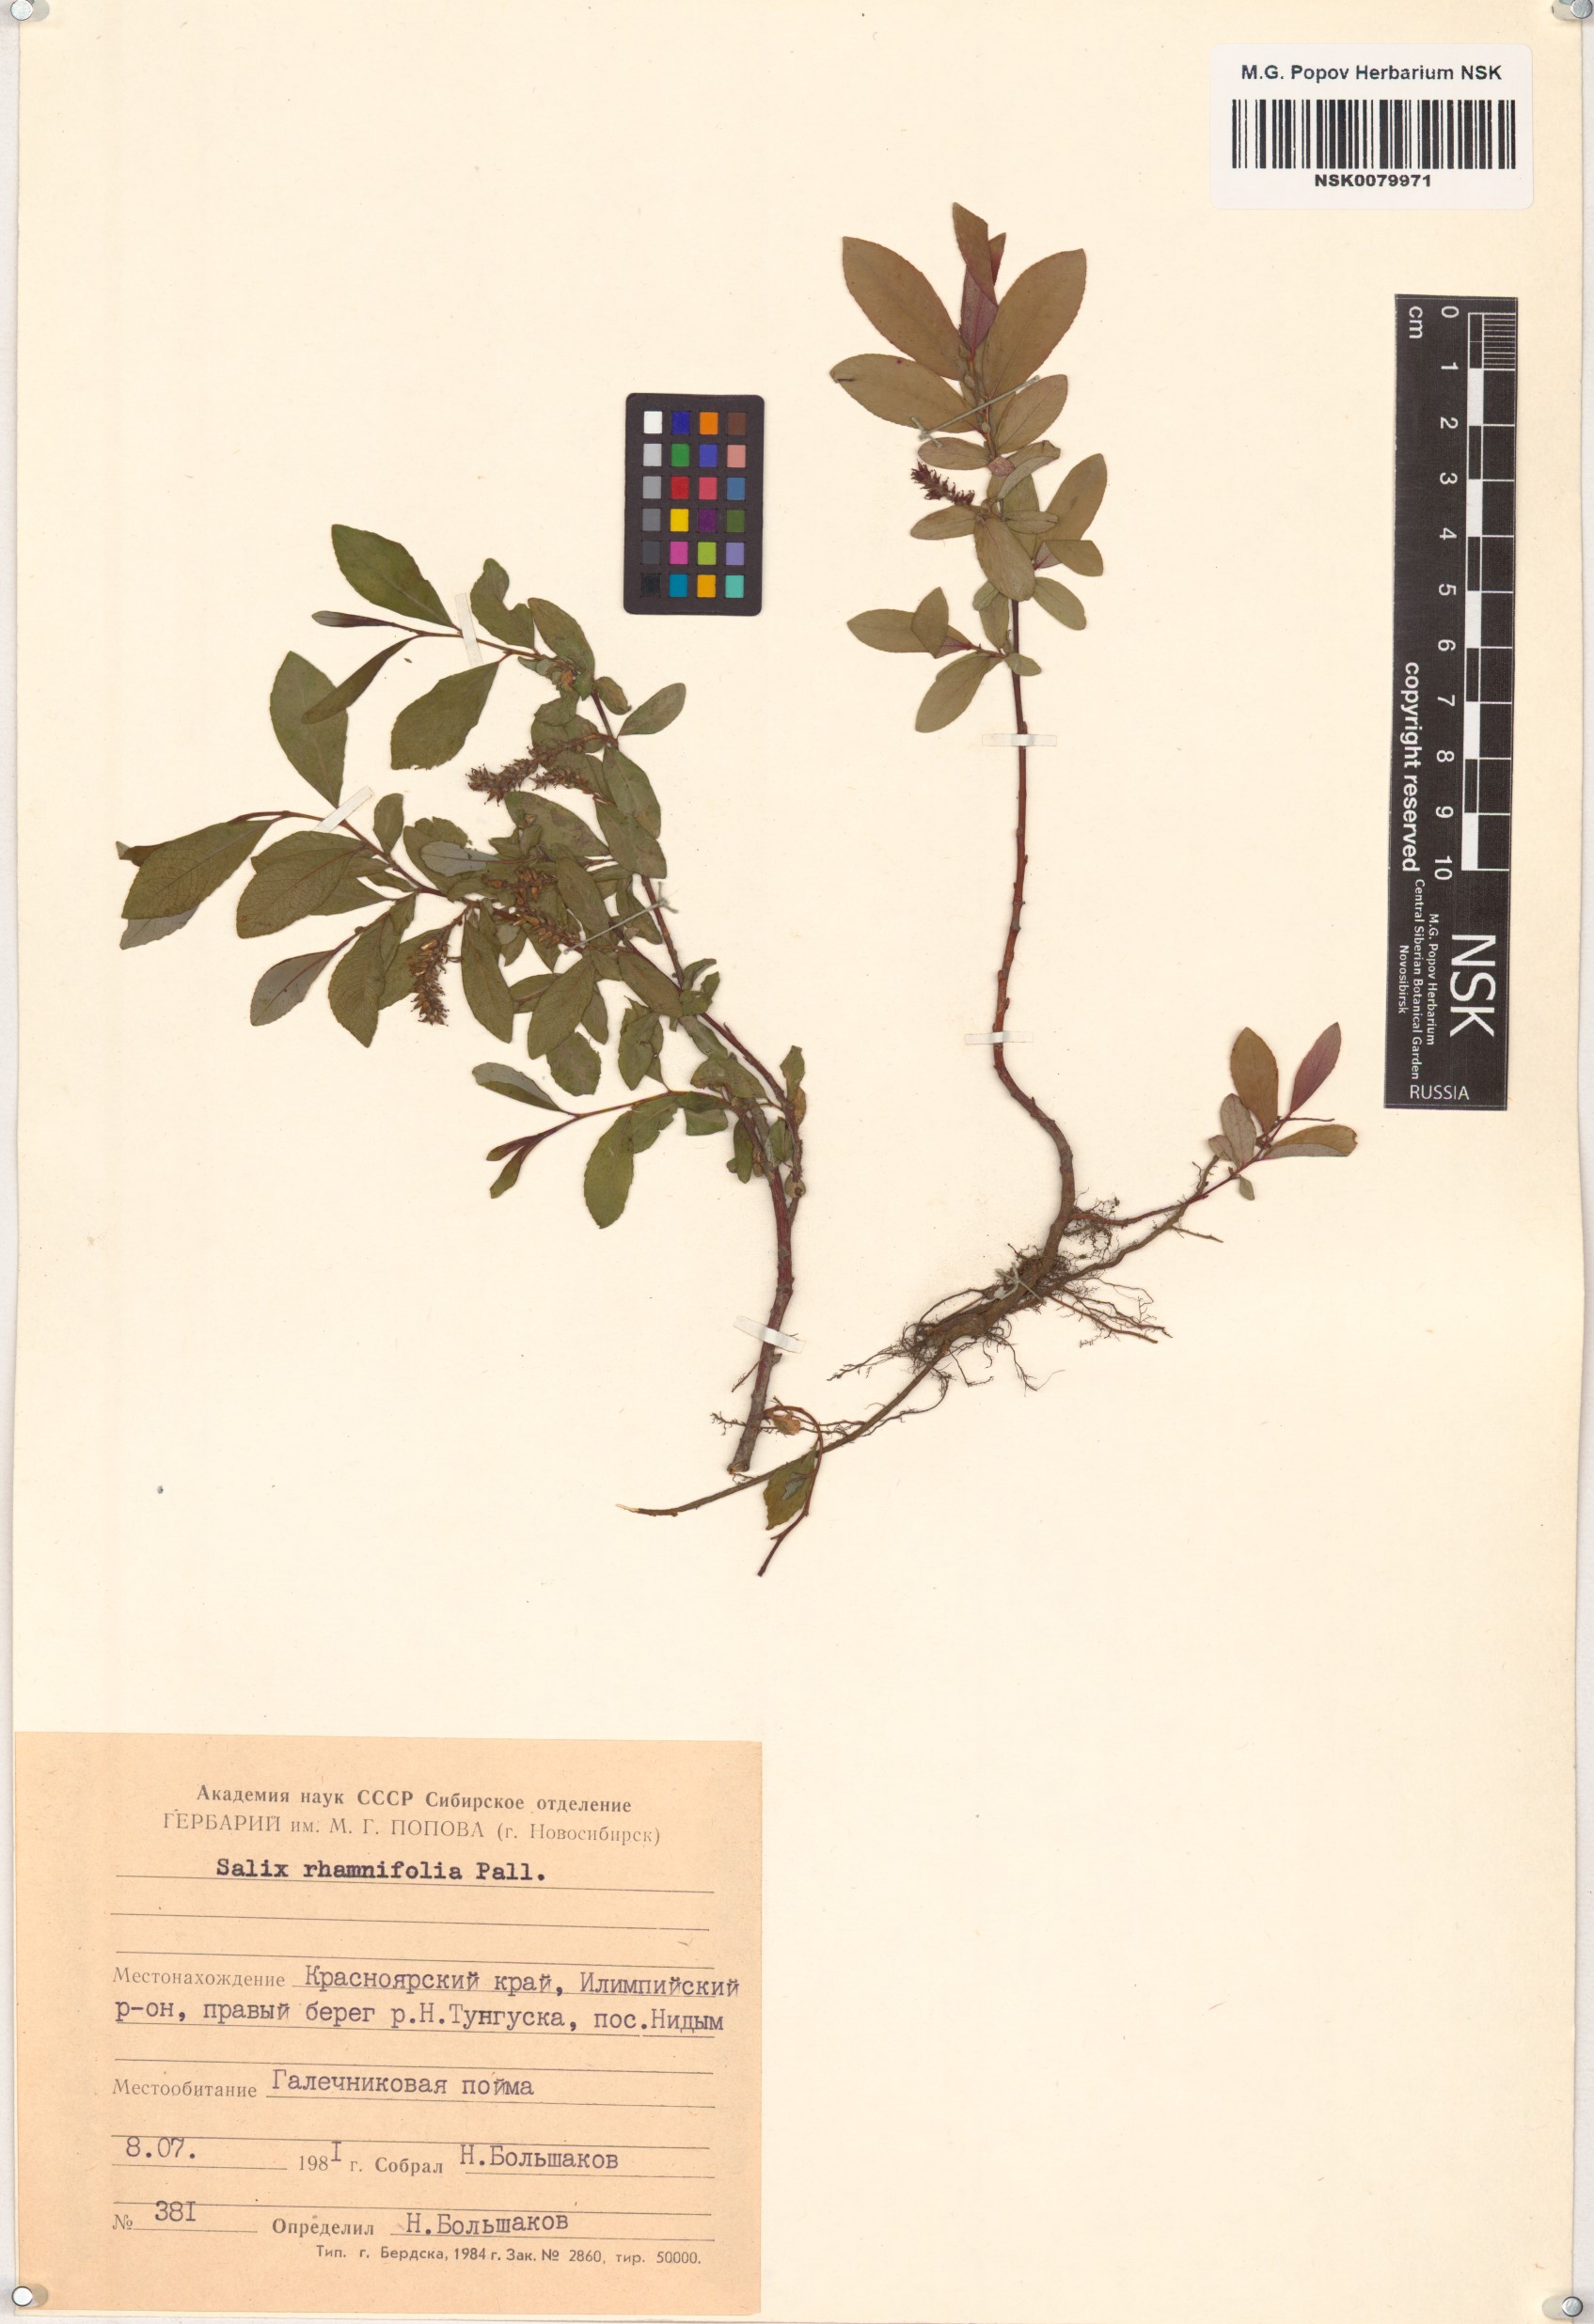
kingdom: Plantae
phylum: Tracheophyta
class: Magnoliopsida
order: Malpighiales
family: Salicaceae
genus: Salix
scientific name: Salix rhamnifolia
